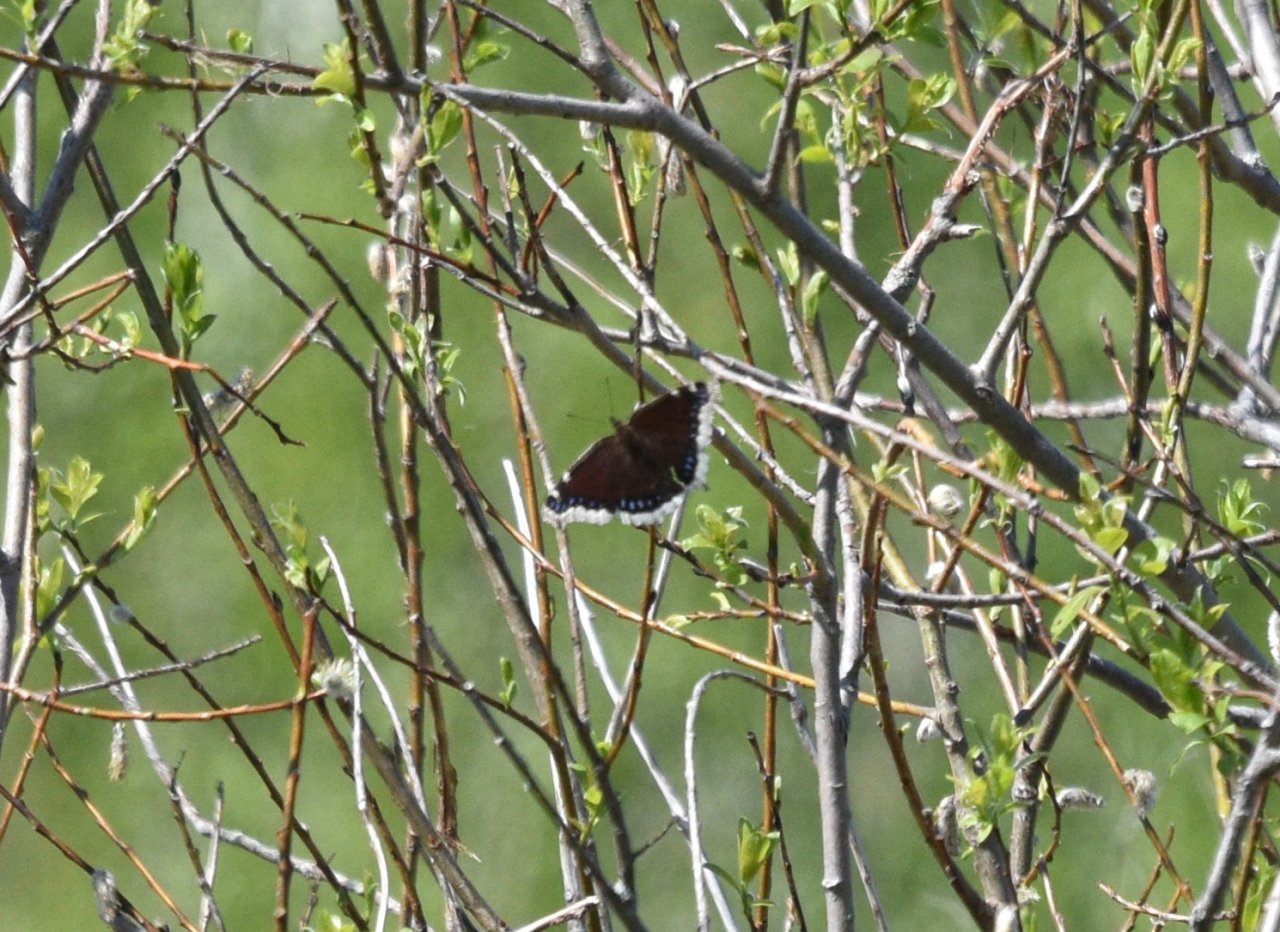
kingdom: Animalia
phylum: Arthropoda
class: Insecta
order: Lepidoptera
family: Nymphalidae
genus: Nymphalis
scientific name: Nymphalis antiopa
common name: Mourning Cloak
